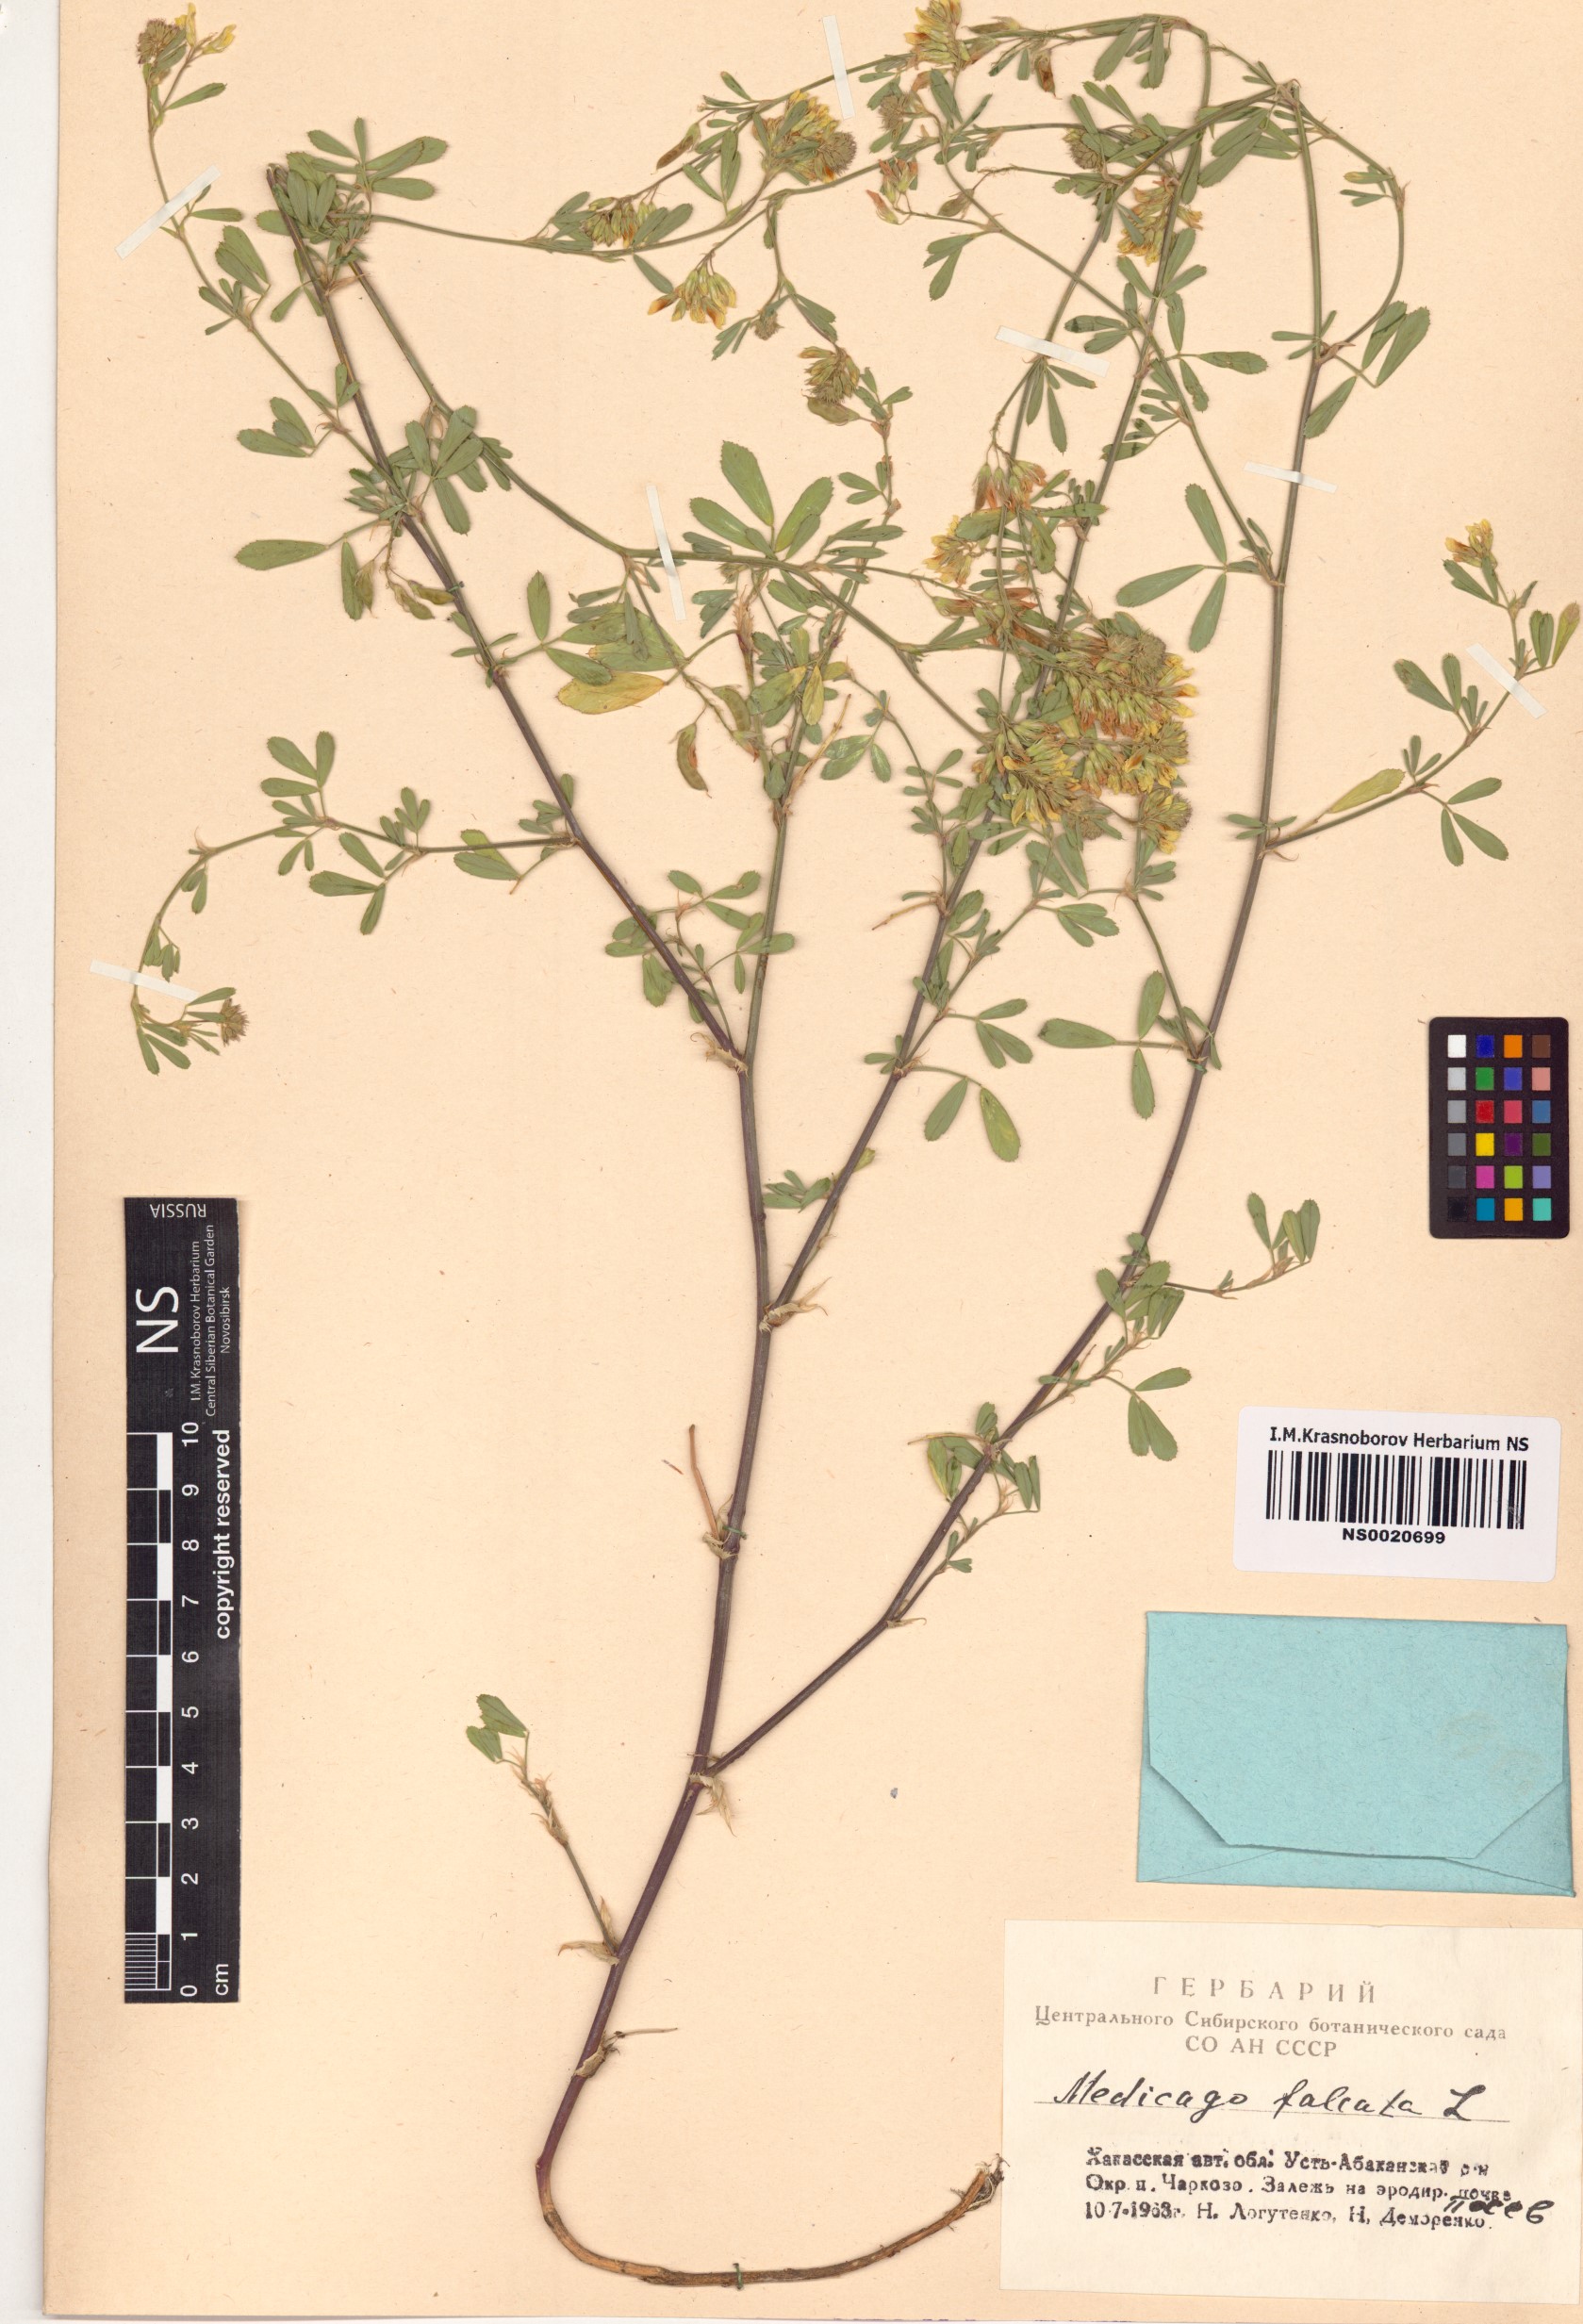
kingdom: Plantae
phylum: Tracheophyta
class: Magnoliopsida
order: Fabales
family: Fabaceae
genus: Medicago
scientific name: Medicago falcata
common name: Sickle medick
